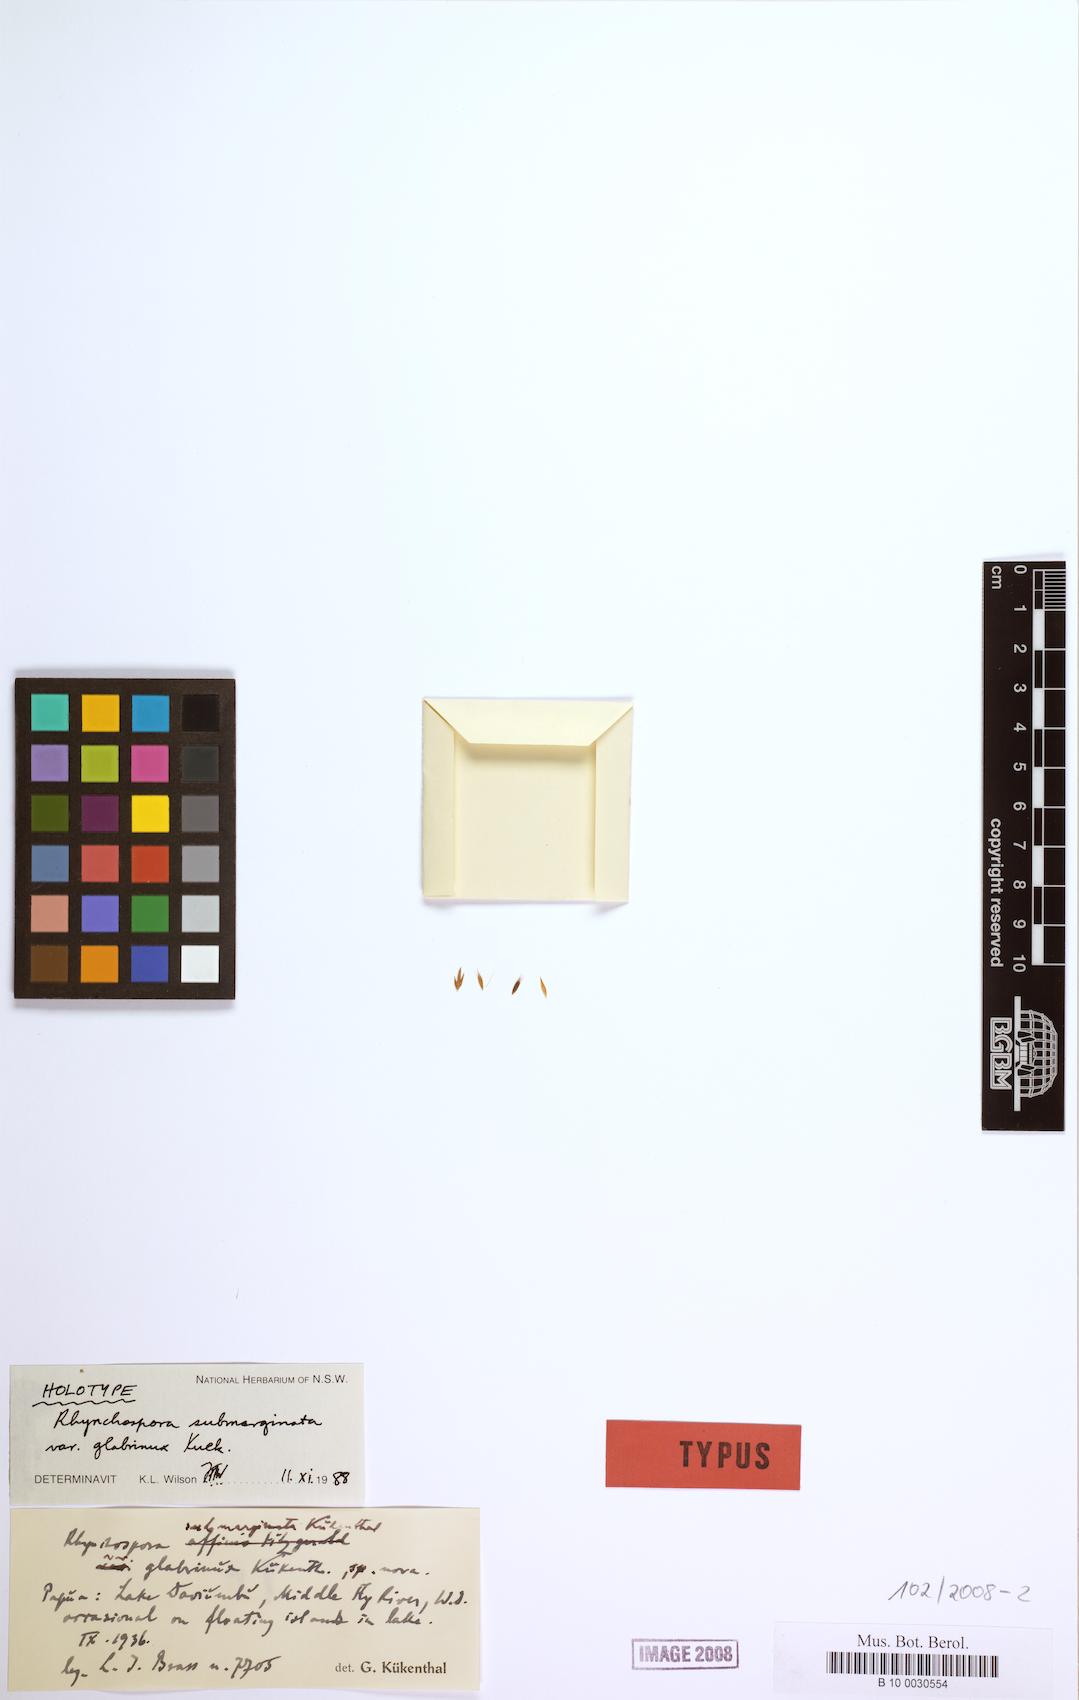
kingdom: Plantae
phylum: Tracheophyta
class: Liliopsida
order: Poales
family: Cyperaceae
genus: Rhynchospora
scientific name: Rhynchospora submarginata
